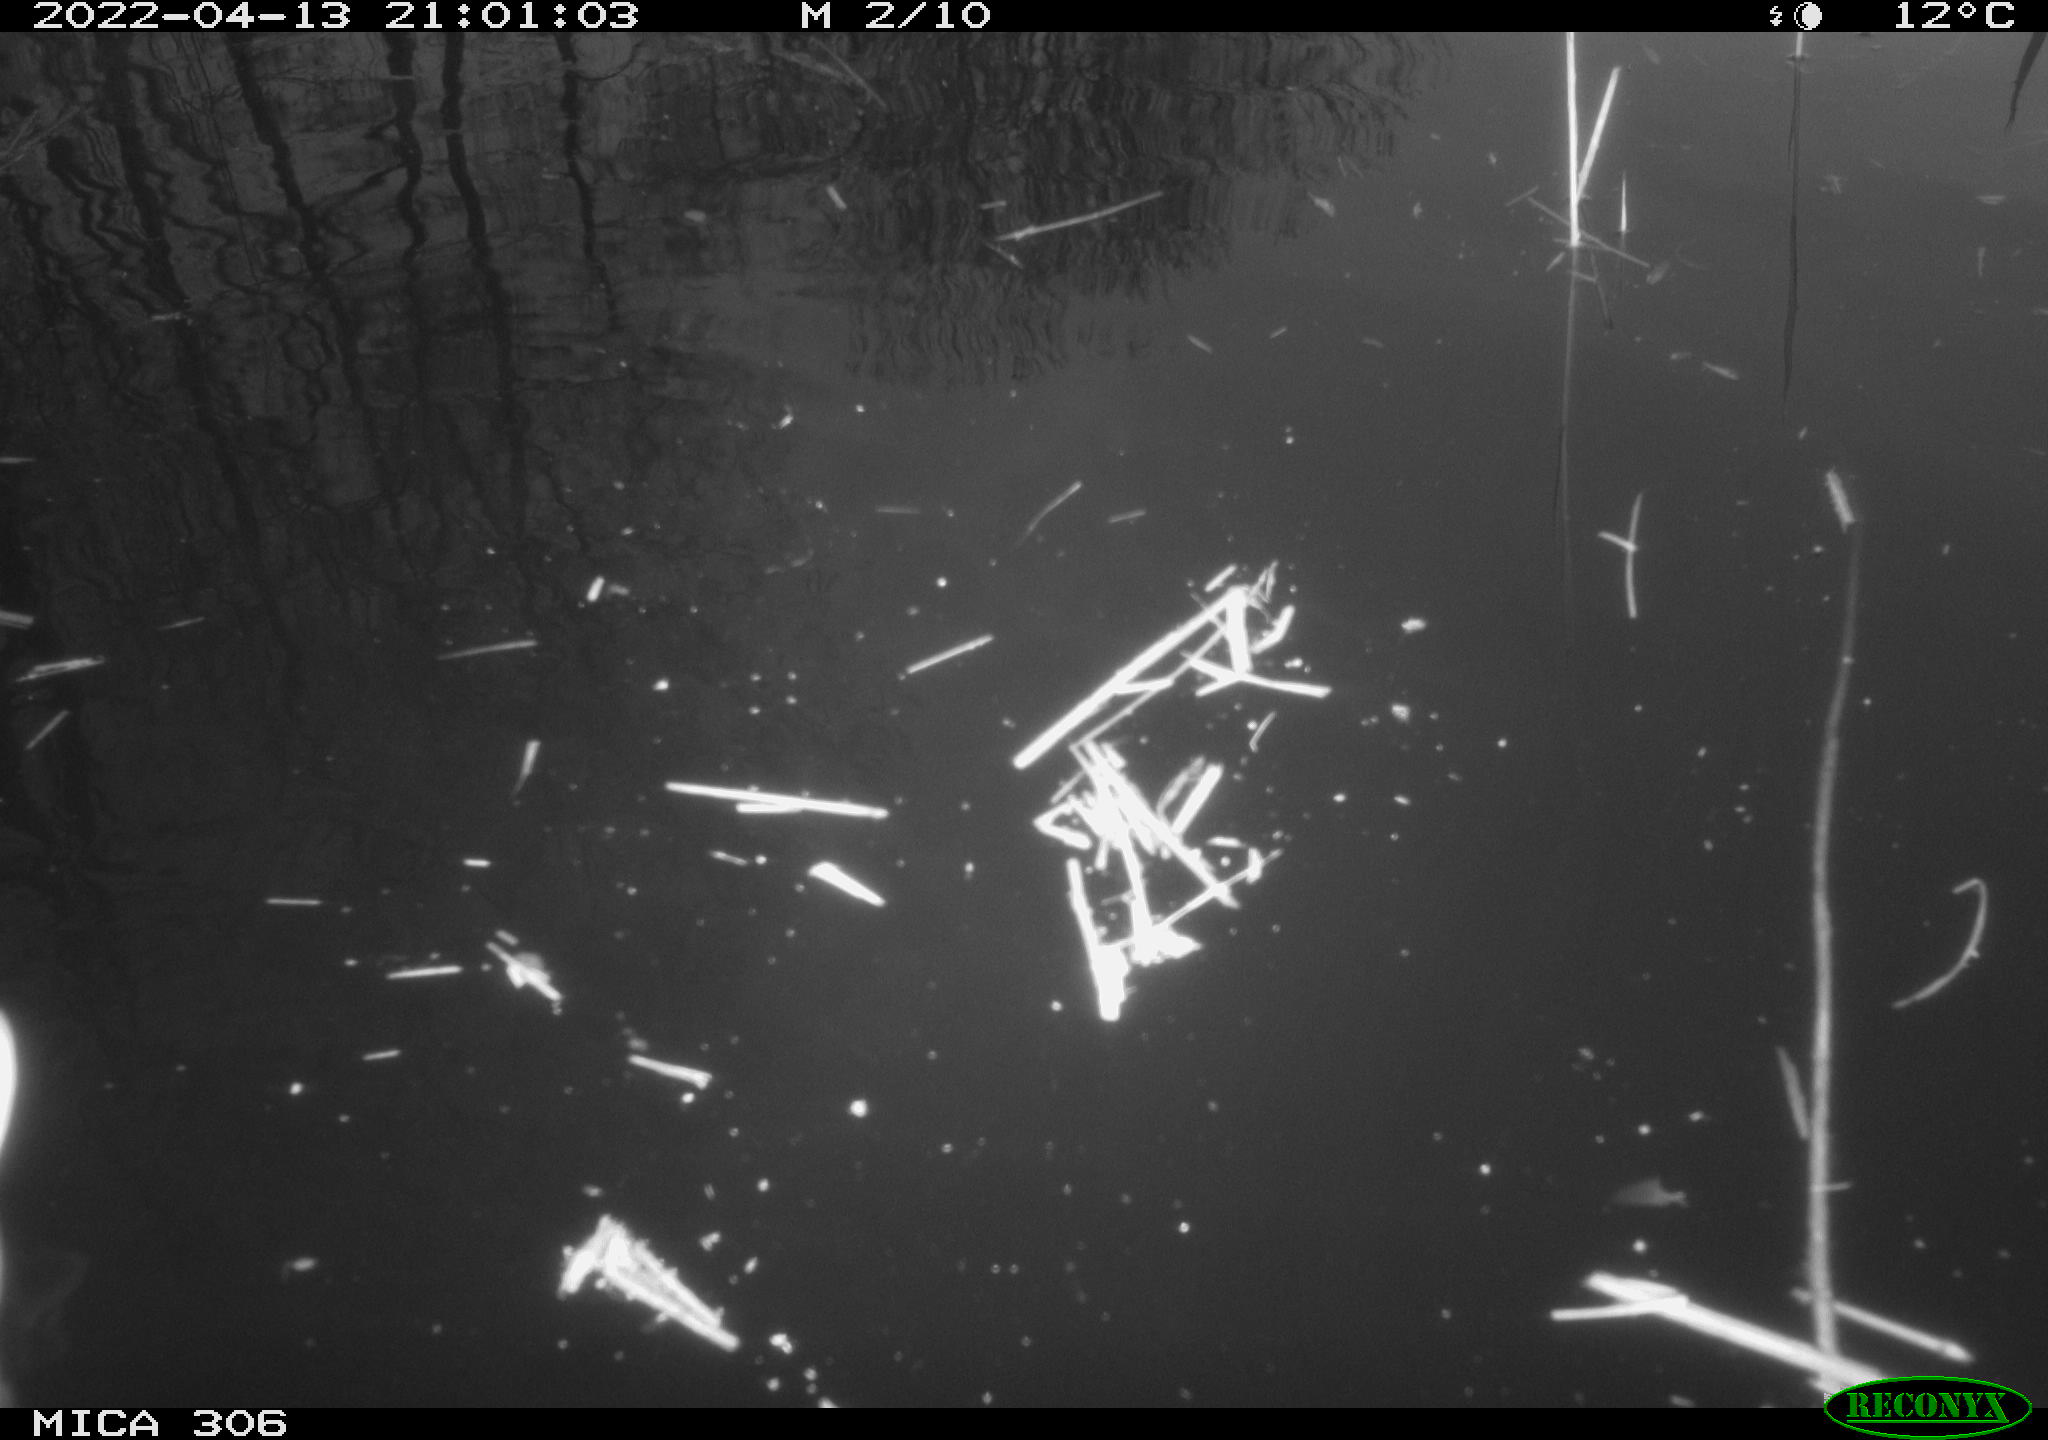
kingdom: Animalia
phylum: Chordata
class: Aves
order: Anseriformes
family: Anatidae
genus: Anas
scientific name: Anas platyrhynchos
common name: Mallard
